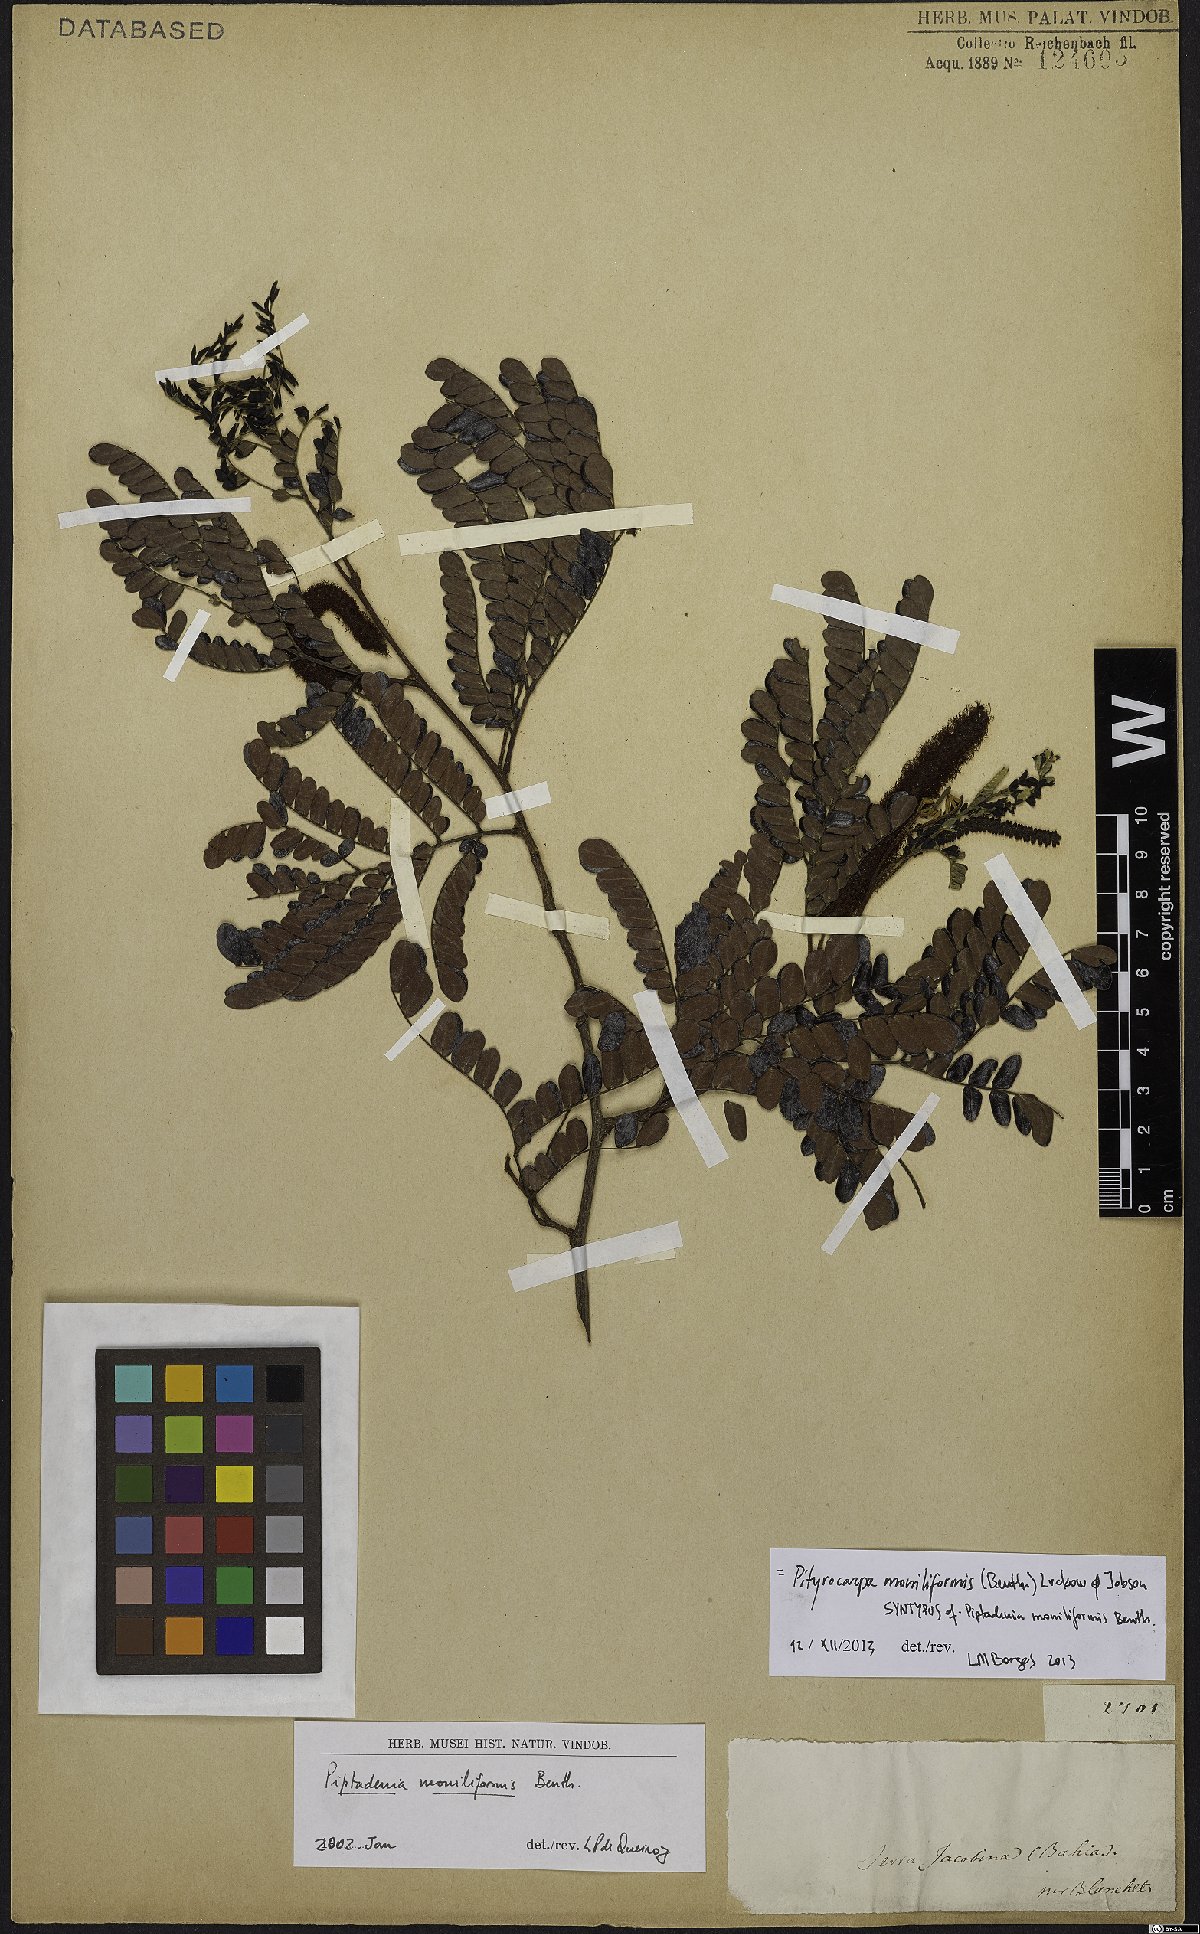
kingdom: Plantae
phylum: Tracheophyta
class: Magnoliopsida
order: Fabales
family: Fabaceae
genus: Pityrocarpa
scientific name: Pityrocarpa moniliformis
